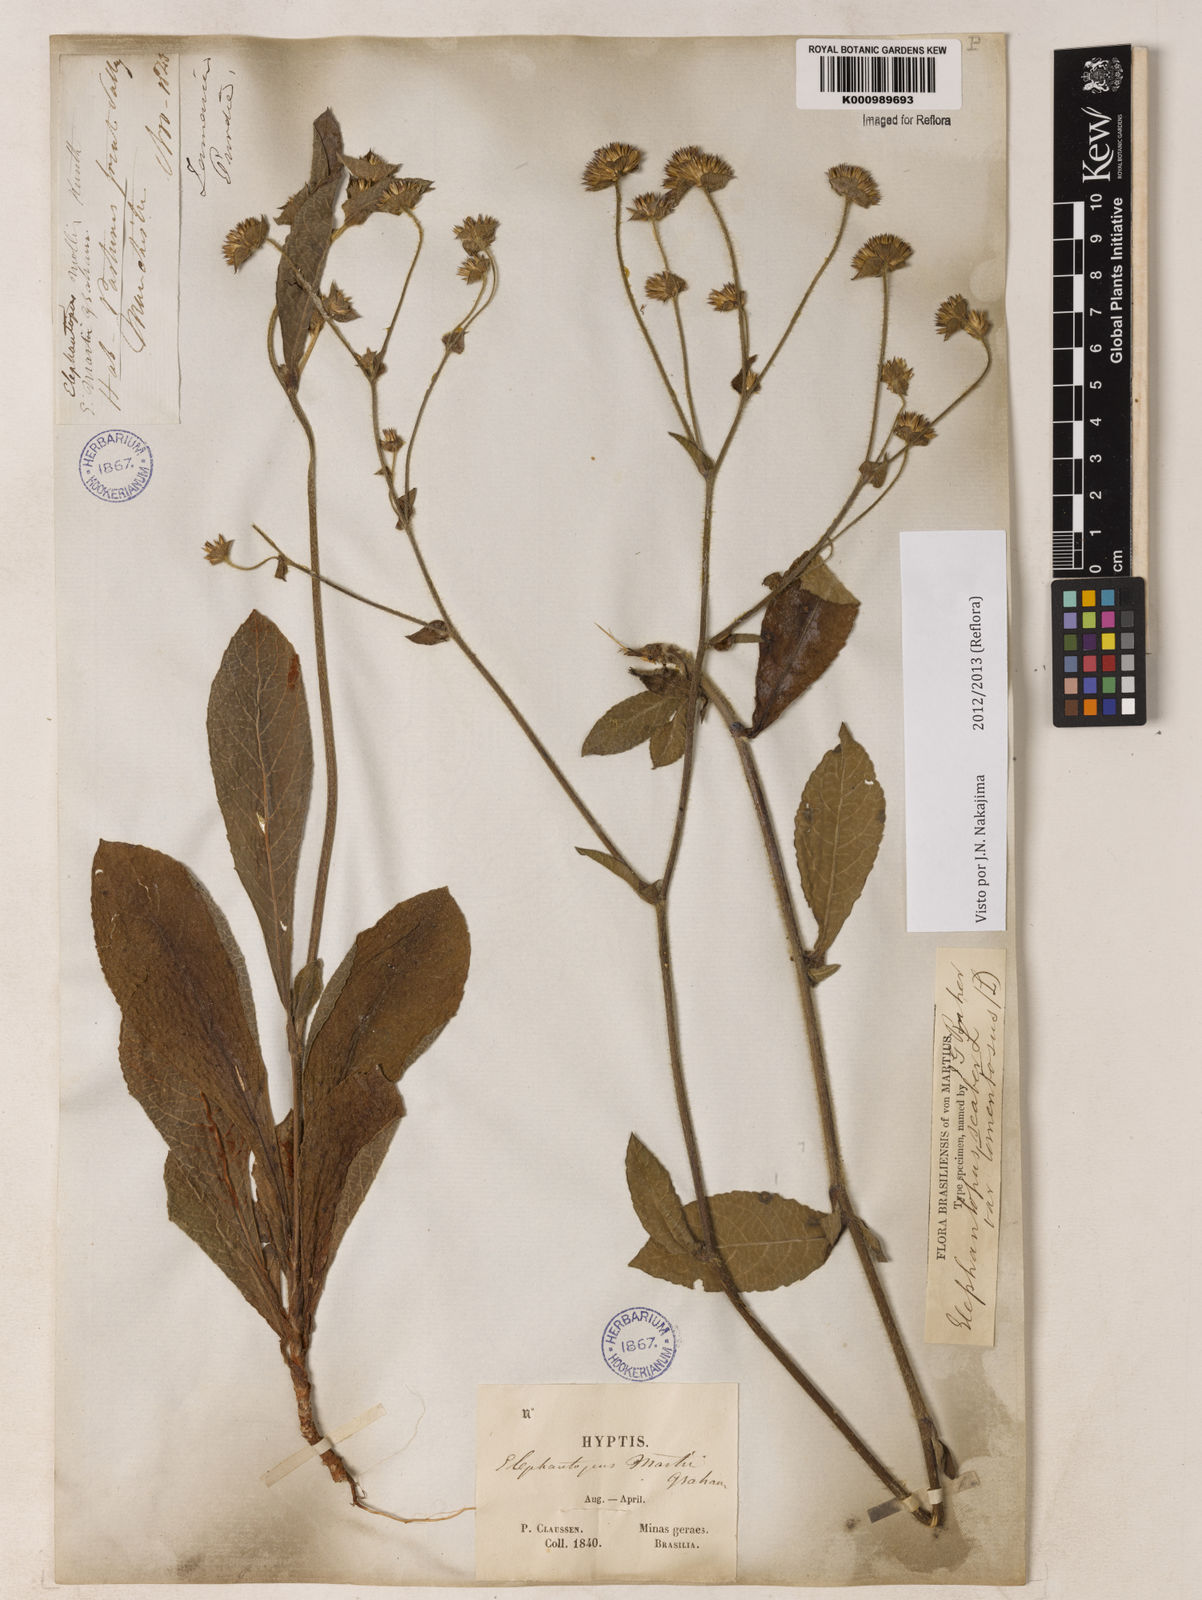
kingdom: Plantae
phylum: Tracheophyta
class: Magnoliopsida
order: Asterales
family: Asteraceae
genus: Elephantopus
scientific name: Elephantopus mollis
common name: Soft elephantsfoot
